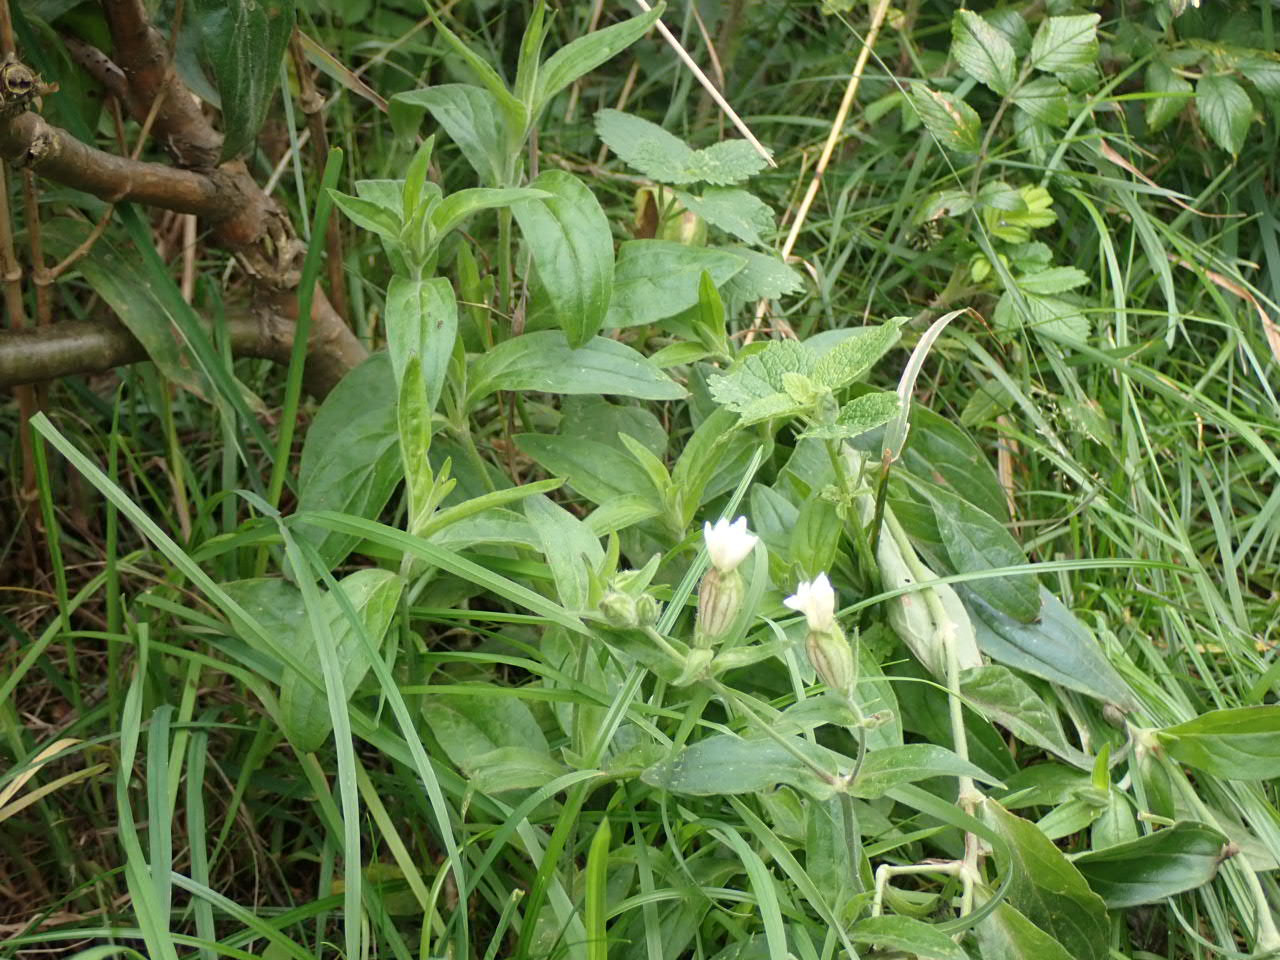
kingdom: Plantae
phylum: Tracheophyta
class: Magnoliopsida
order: Caryophyllales
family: Caryophyllaceae
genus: Silene
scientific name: Silene latifolia
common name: Aftenpragtstjerne
